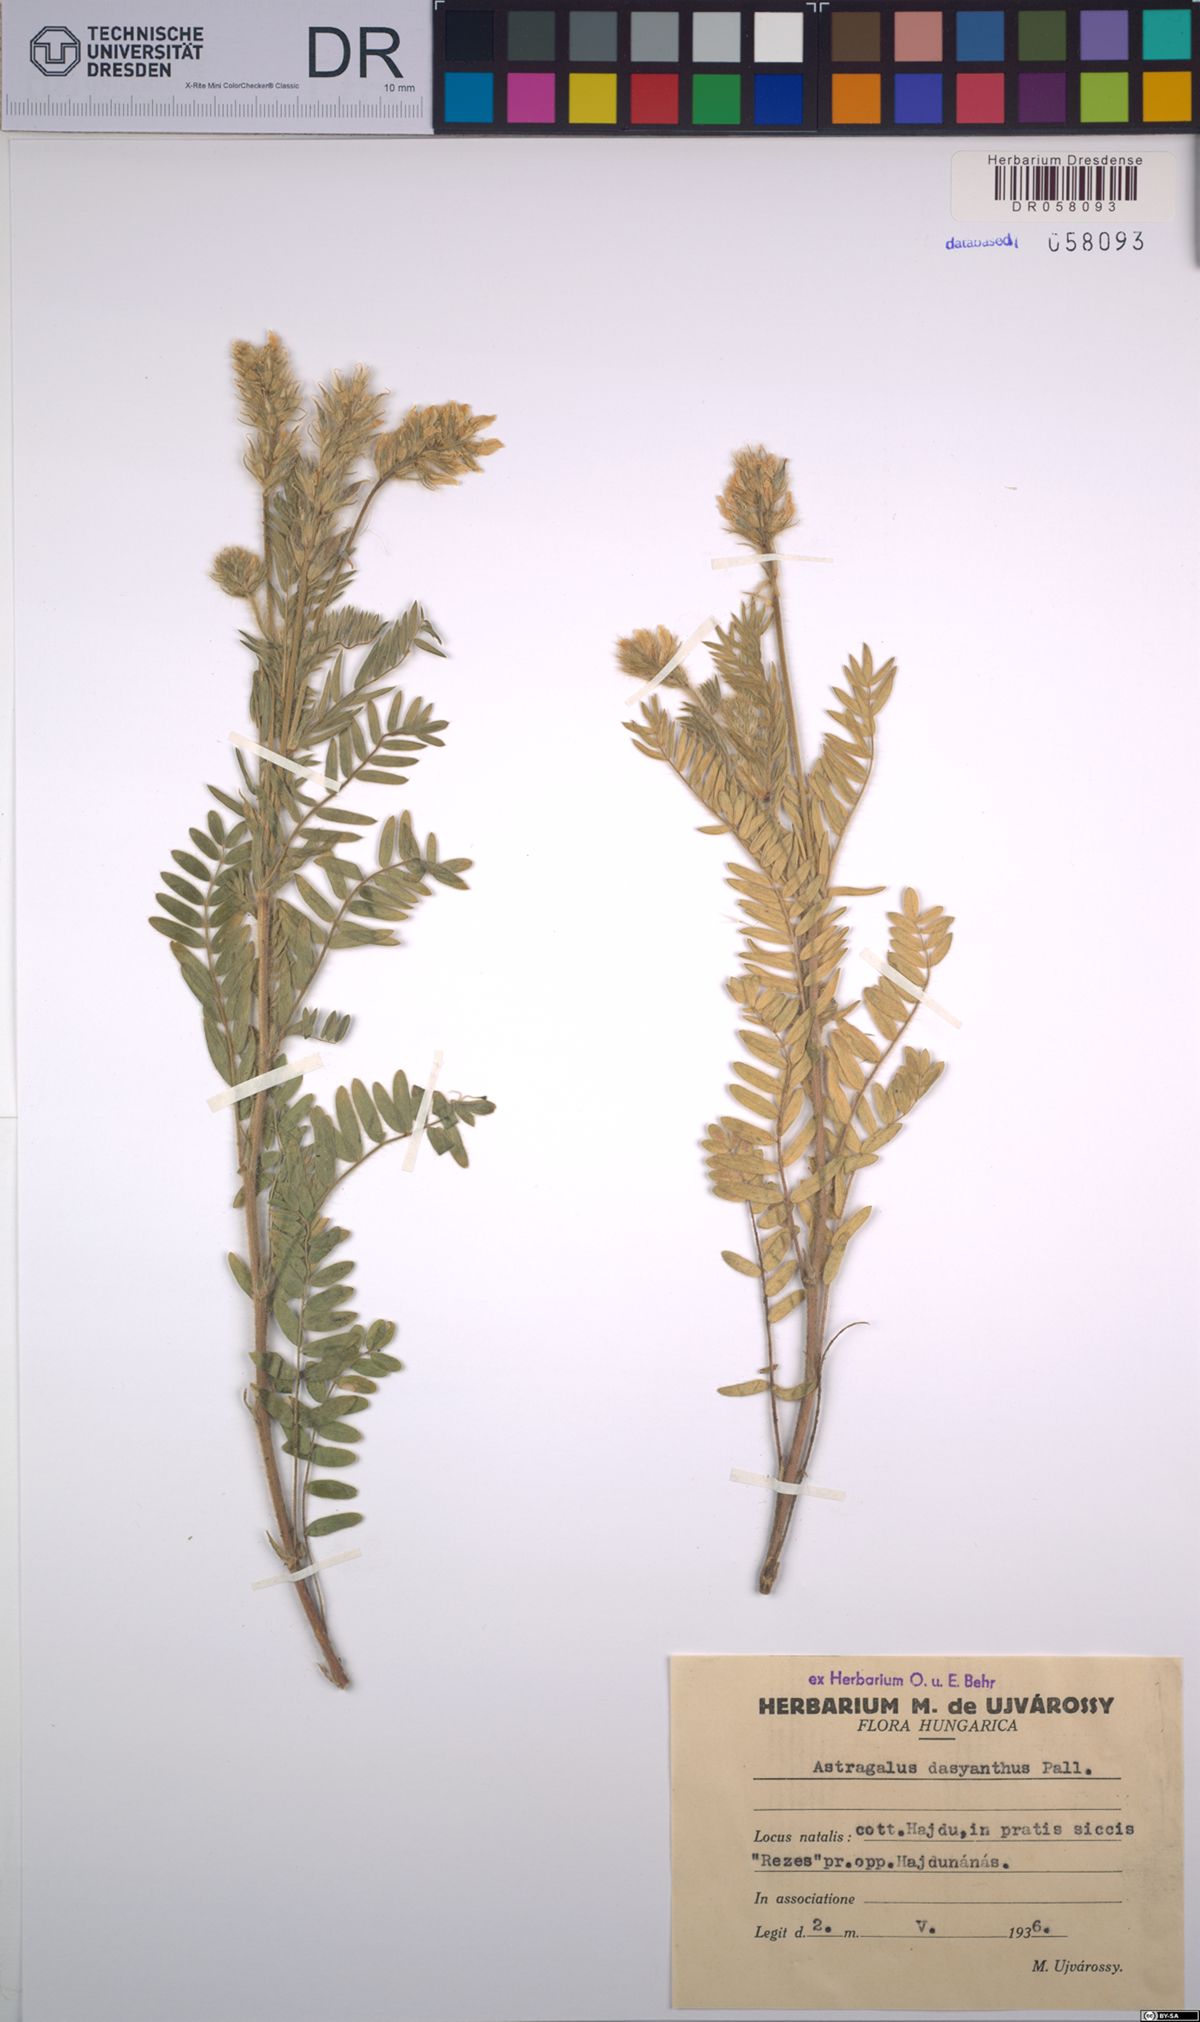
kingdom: Plantae
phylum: Tracheophyta
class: Magnoliopsida
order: Fabales
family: Fabaceae
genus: Astragalus
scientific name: Astragalus dasyanthus
